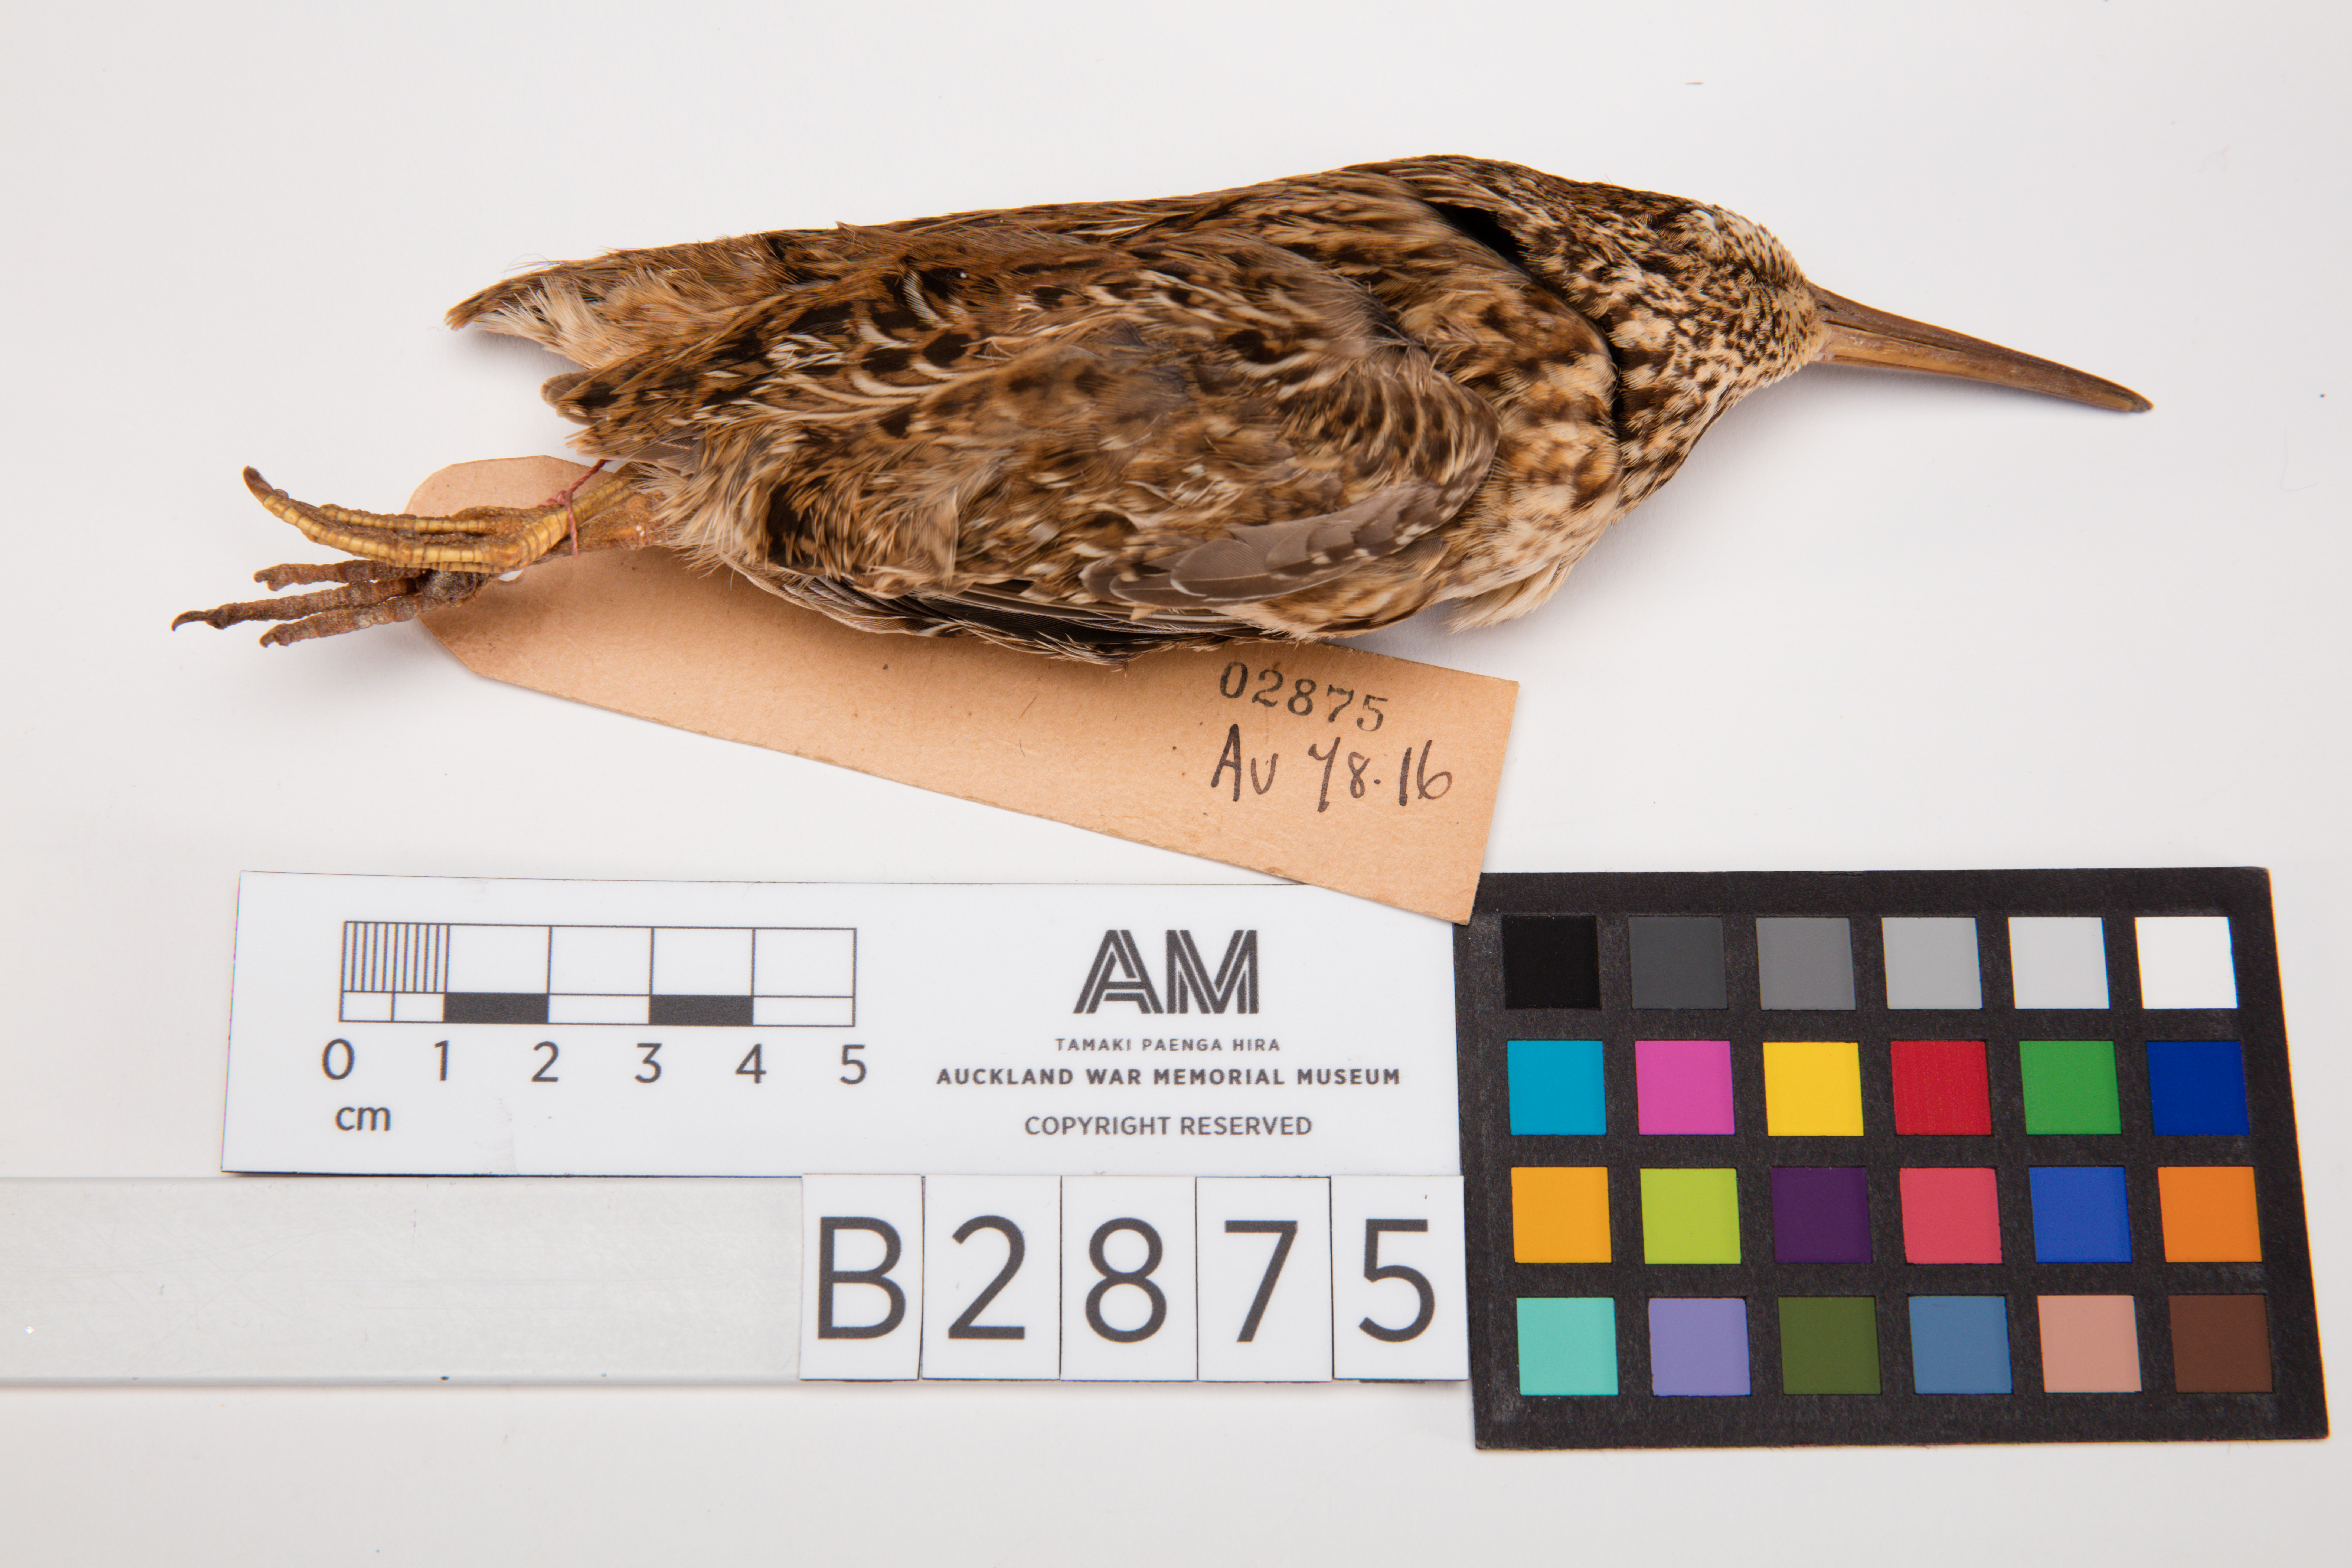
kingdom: Animalia
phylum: Chordata
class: Aves
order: Charadriiformes
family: Scolopacidae
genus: Coenocorypha
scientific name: Coenocorypha pusilla
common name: Chatham snipe
